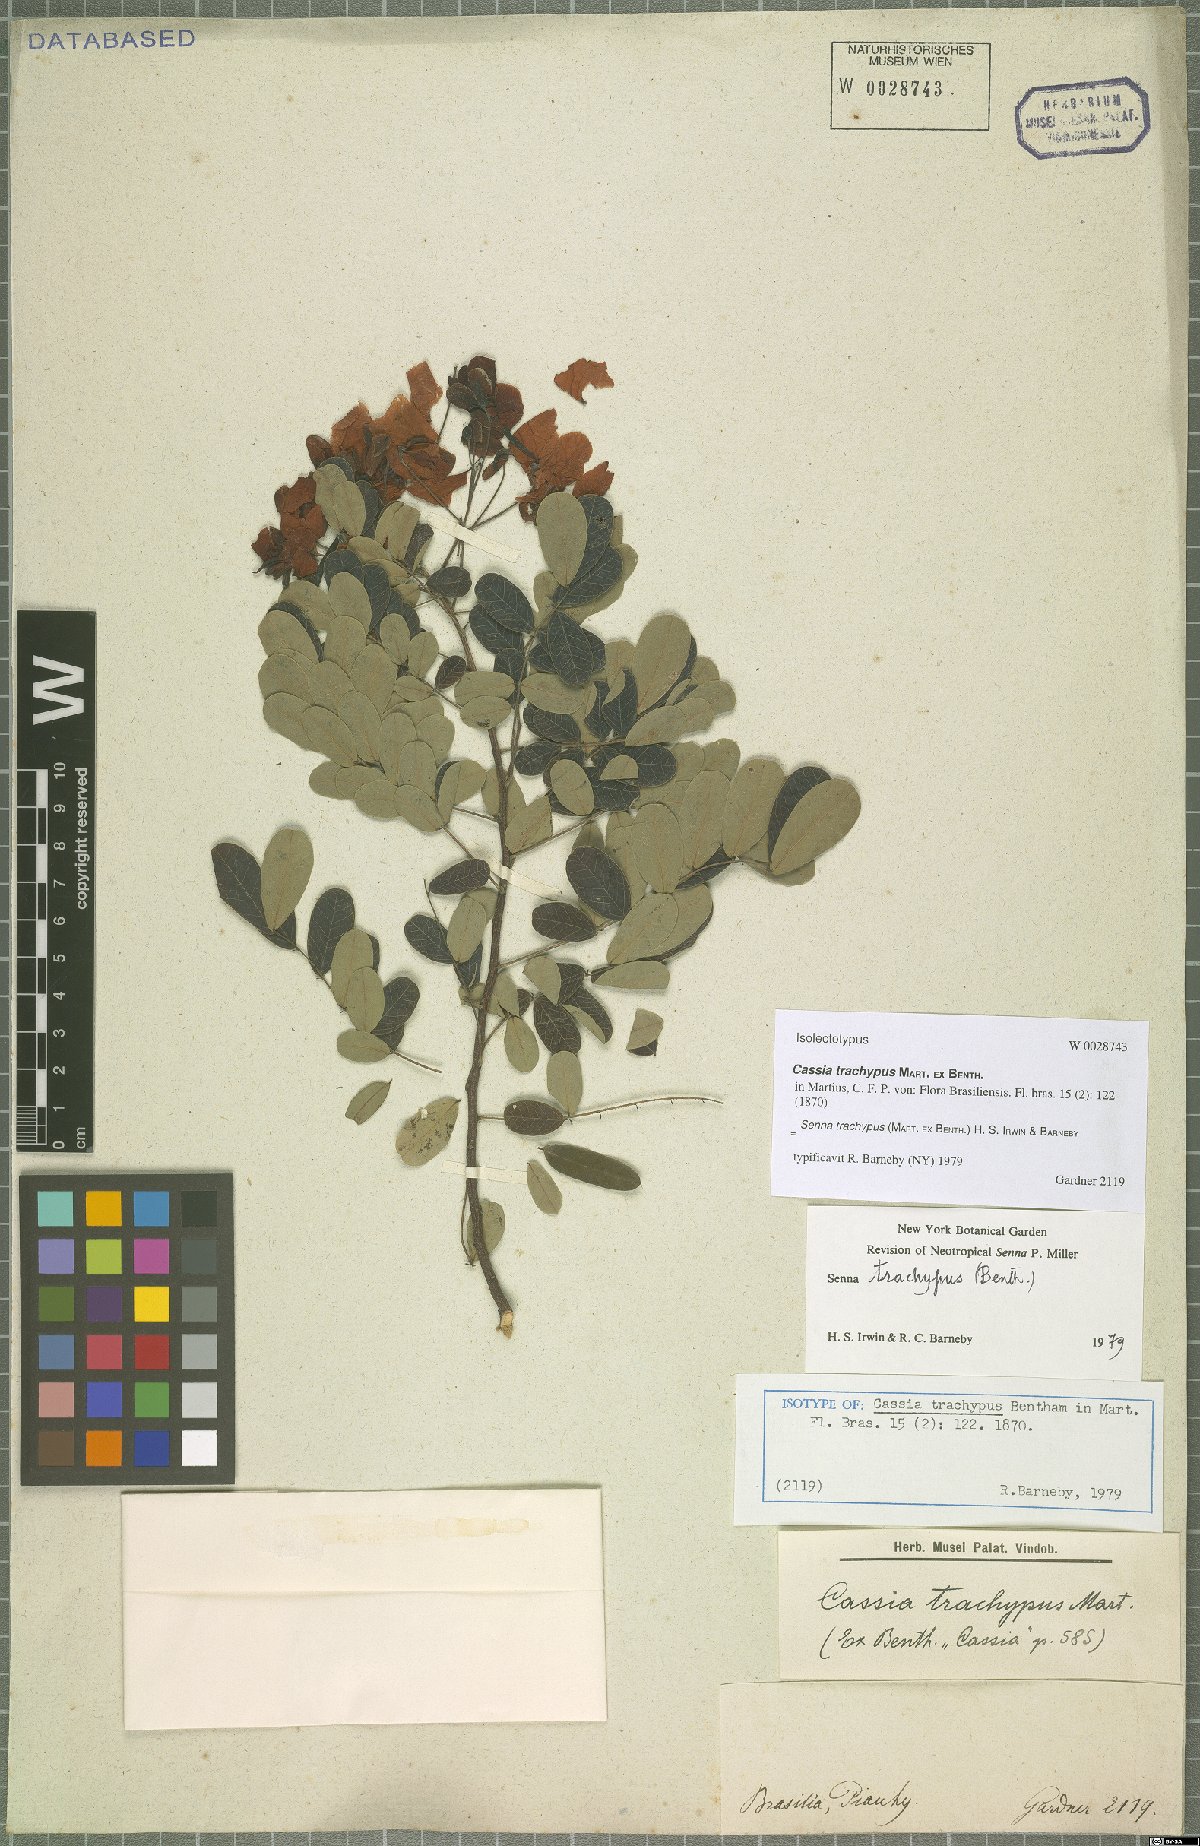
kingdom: Plantae
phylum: Tracheophyta
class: Magnoliopsida
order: Fabales
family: Fabaceae
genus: Senna
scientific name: Senna trachypus
